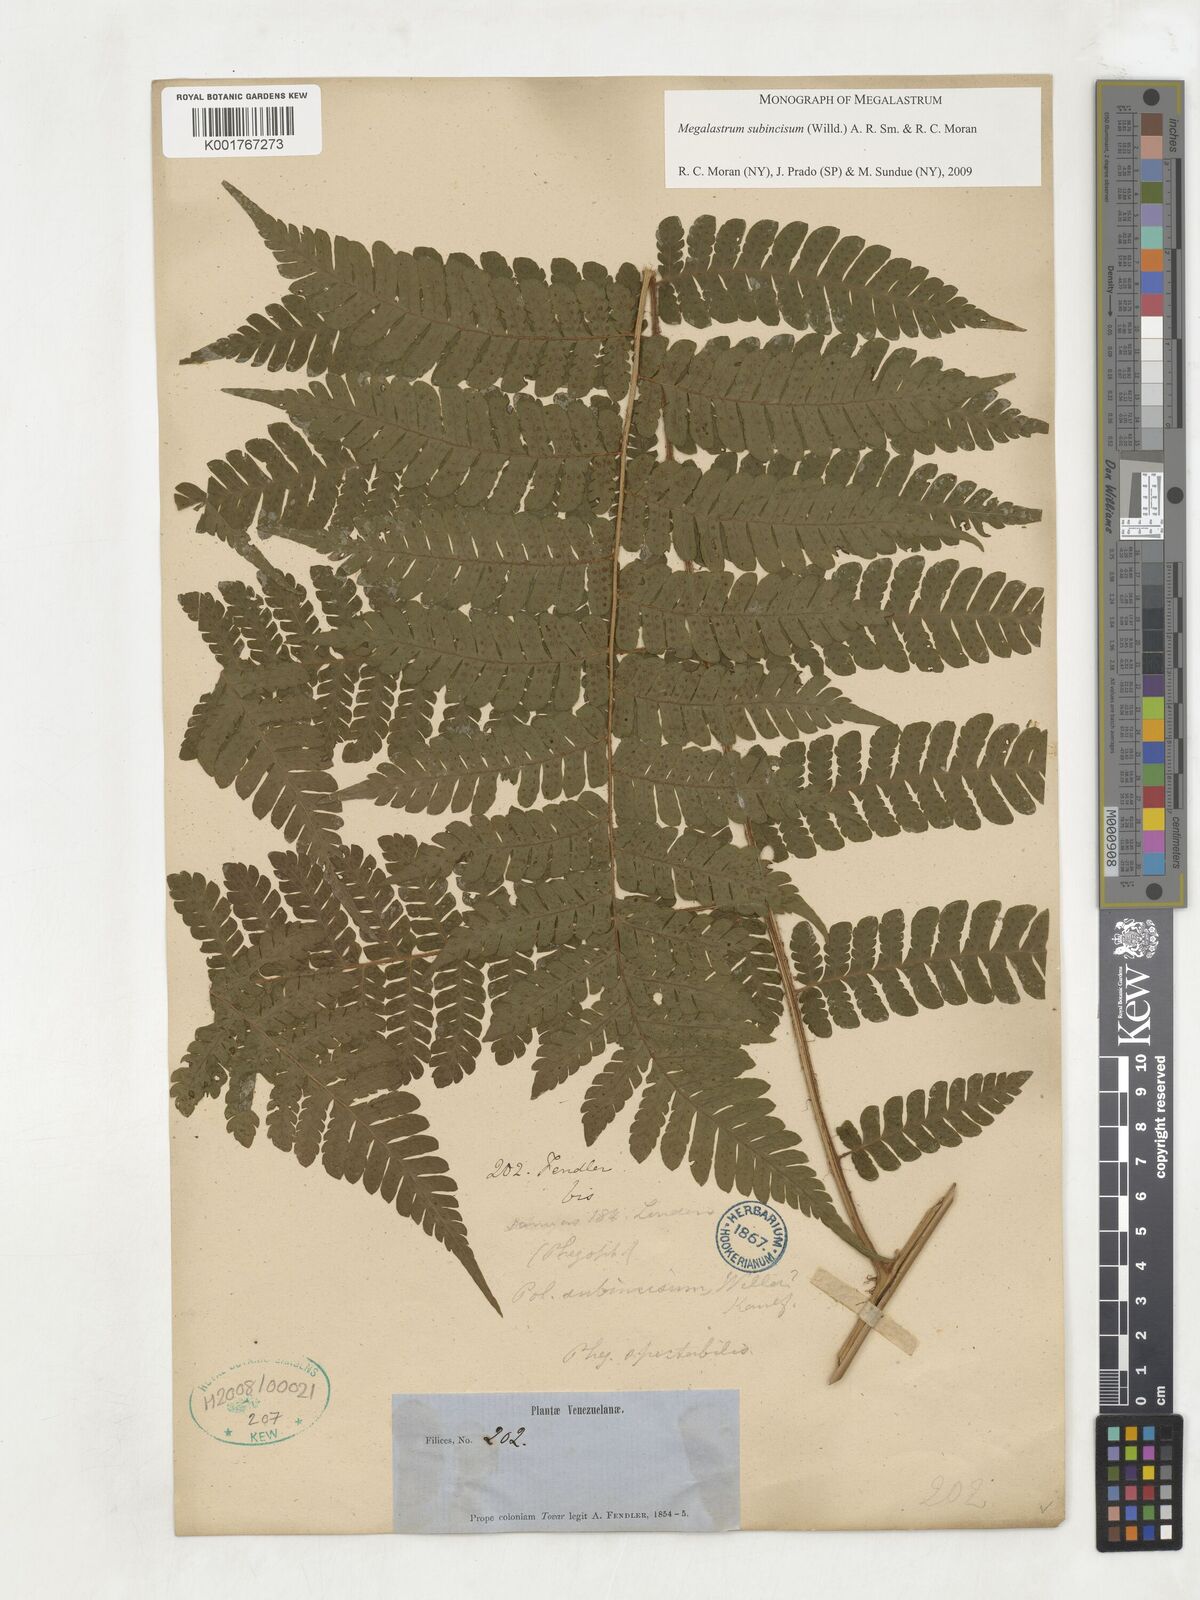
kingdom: Plantae
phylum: Tracheophyta
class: Polypodiopsida
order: Polypodiales
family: Dryopteridaceae
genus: Megalastrum
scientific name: Megalastrum subincisum
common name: Jagleaf junglefern
